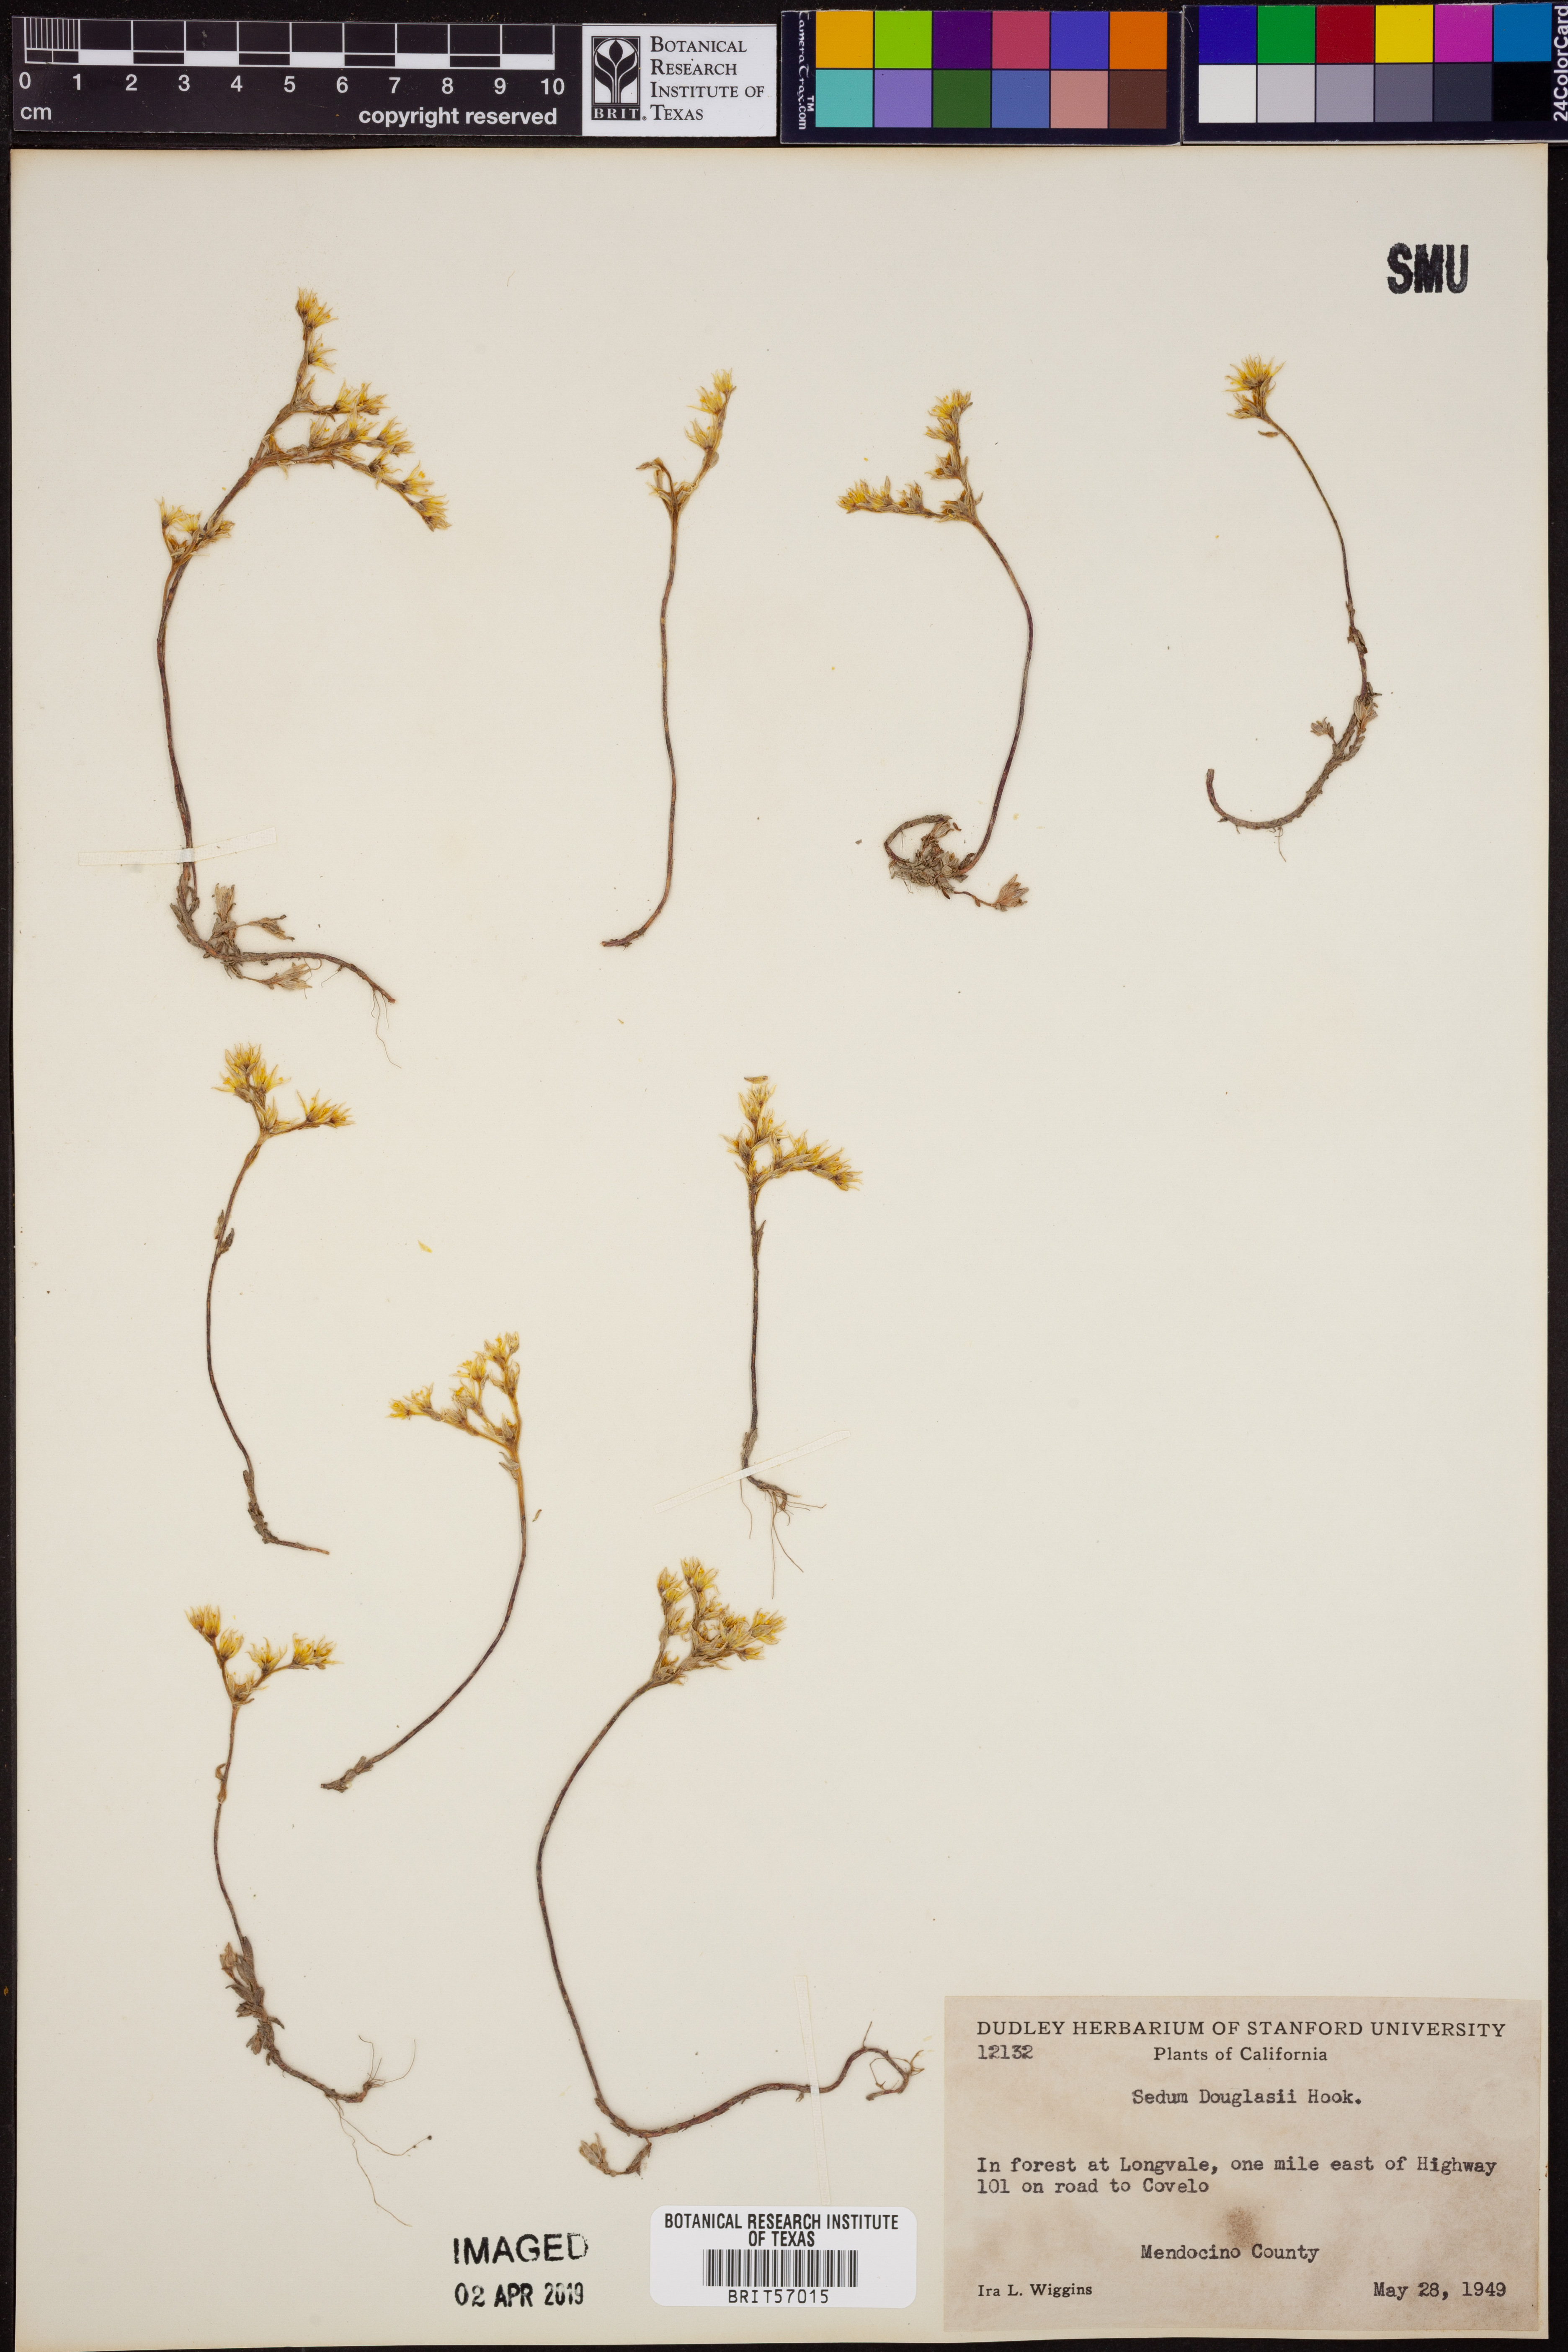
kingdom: Plantae
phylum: Tracheophyta
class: Magnoliopsida
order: Saxifragales
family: Crassulaceae
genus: Sedum
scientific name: Sedum stenopetalum
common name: Narrow-petaled stonecrop
